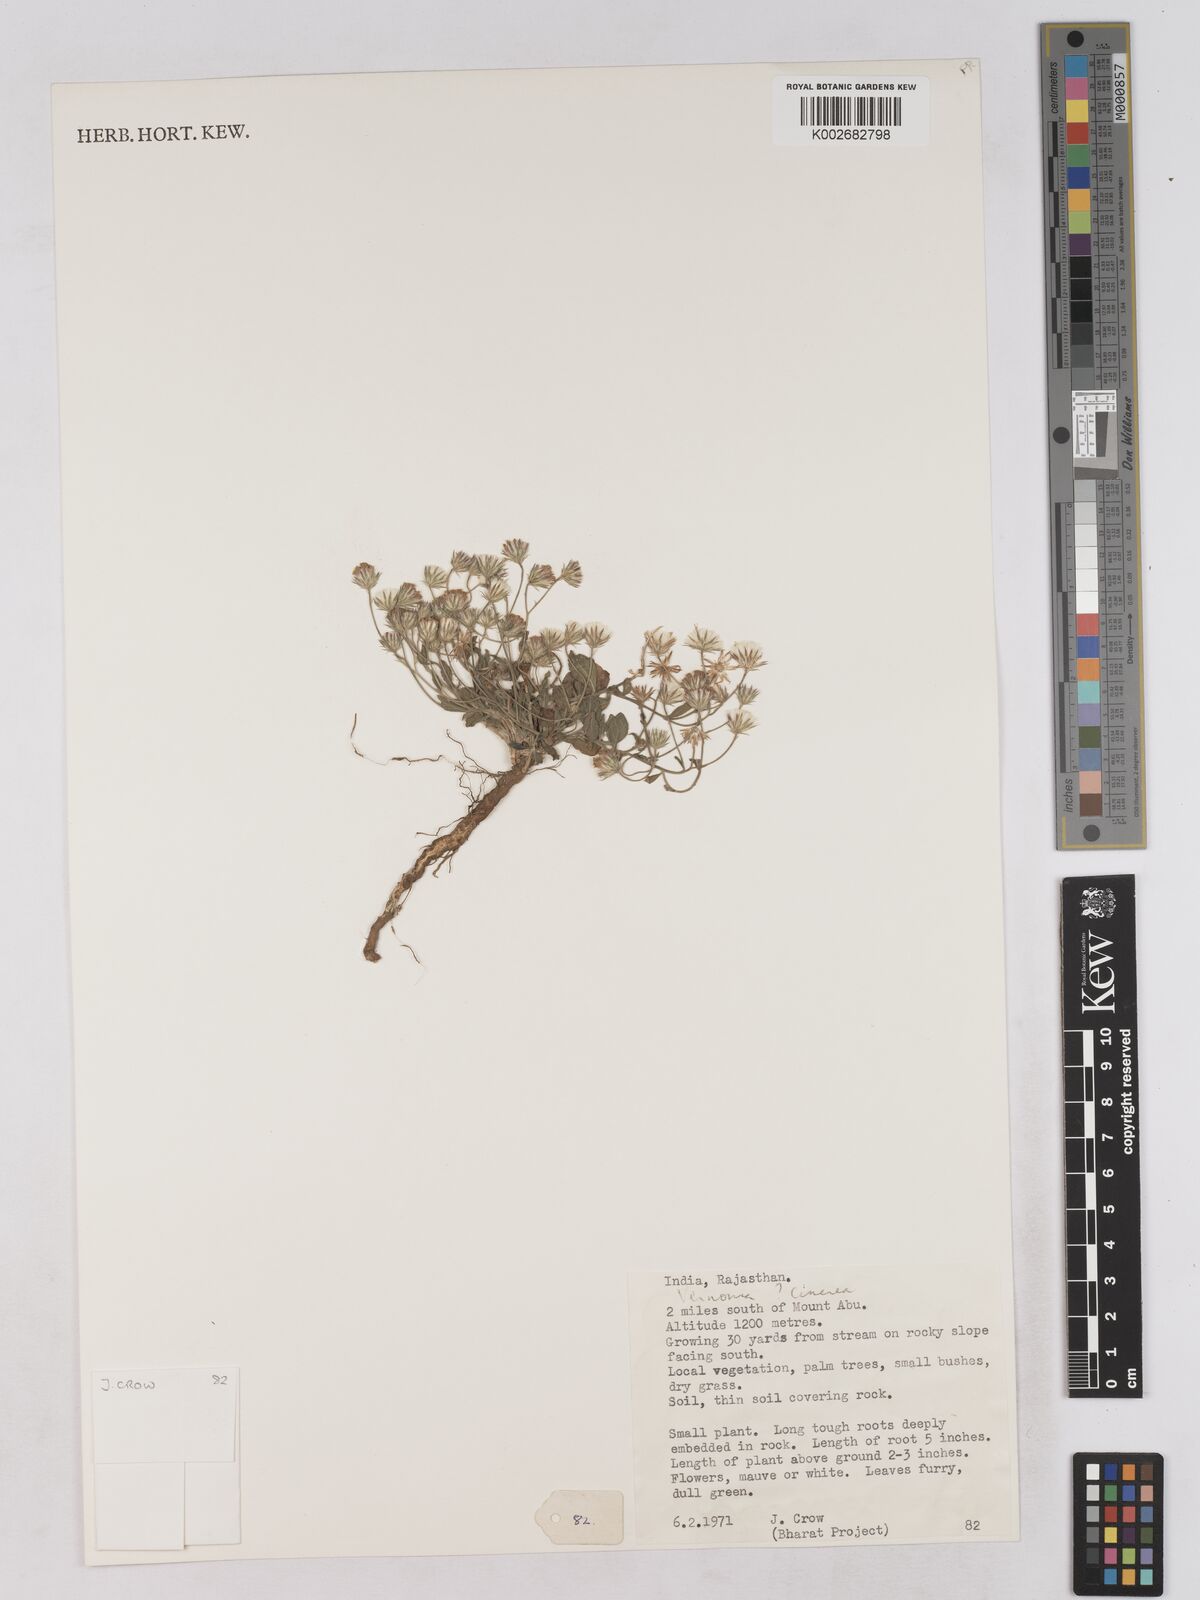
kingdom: Plantae
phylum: Tracheophyta
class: Magnoliopsida
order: Asterales
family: Asteraceae
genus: Cyanthillium
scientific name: Cyanthillium cinereum
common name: Little ironweed
